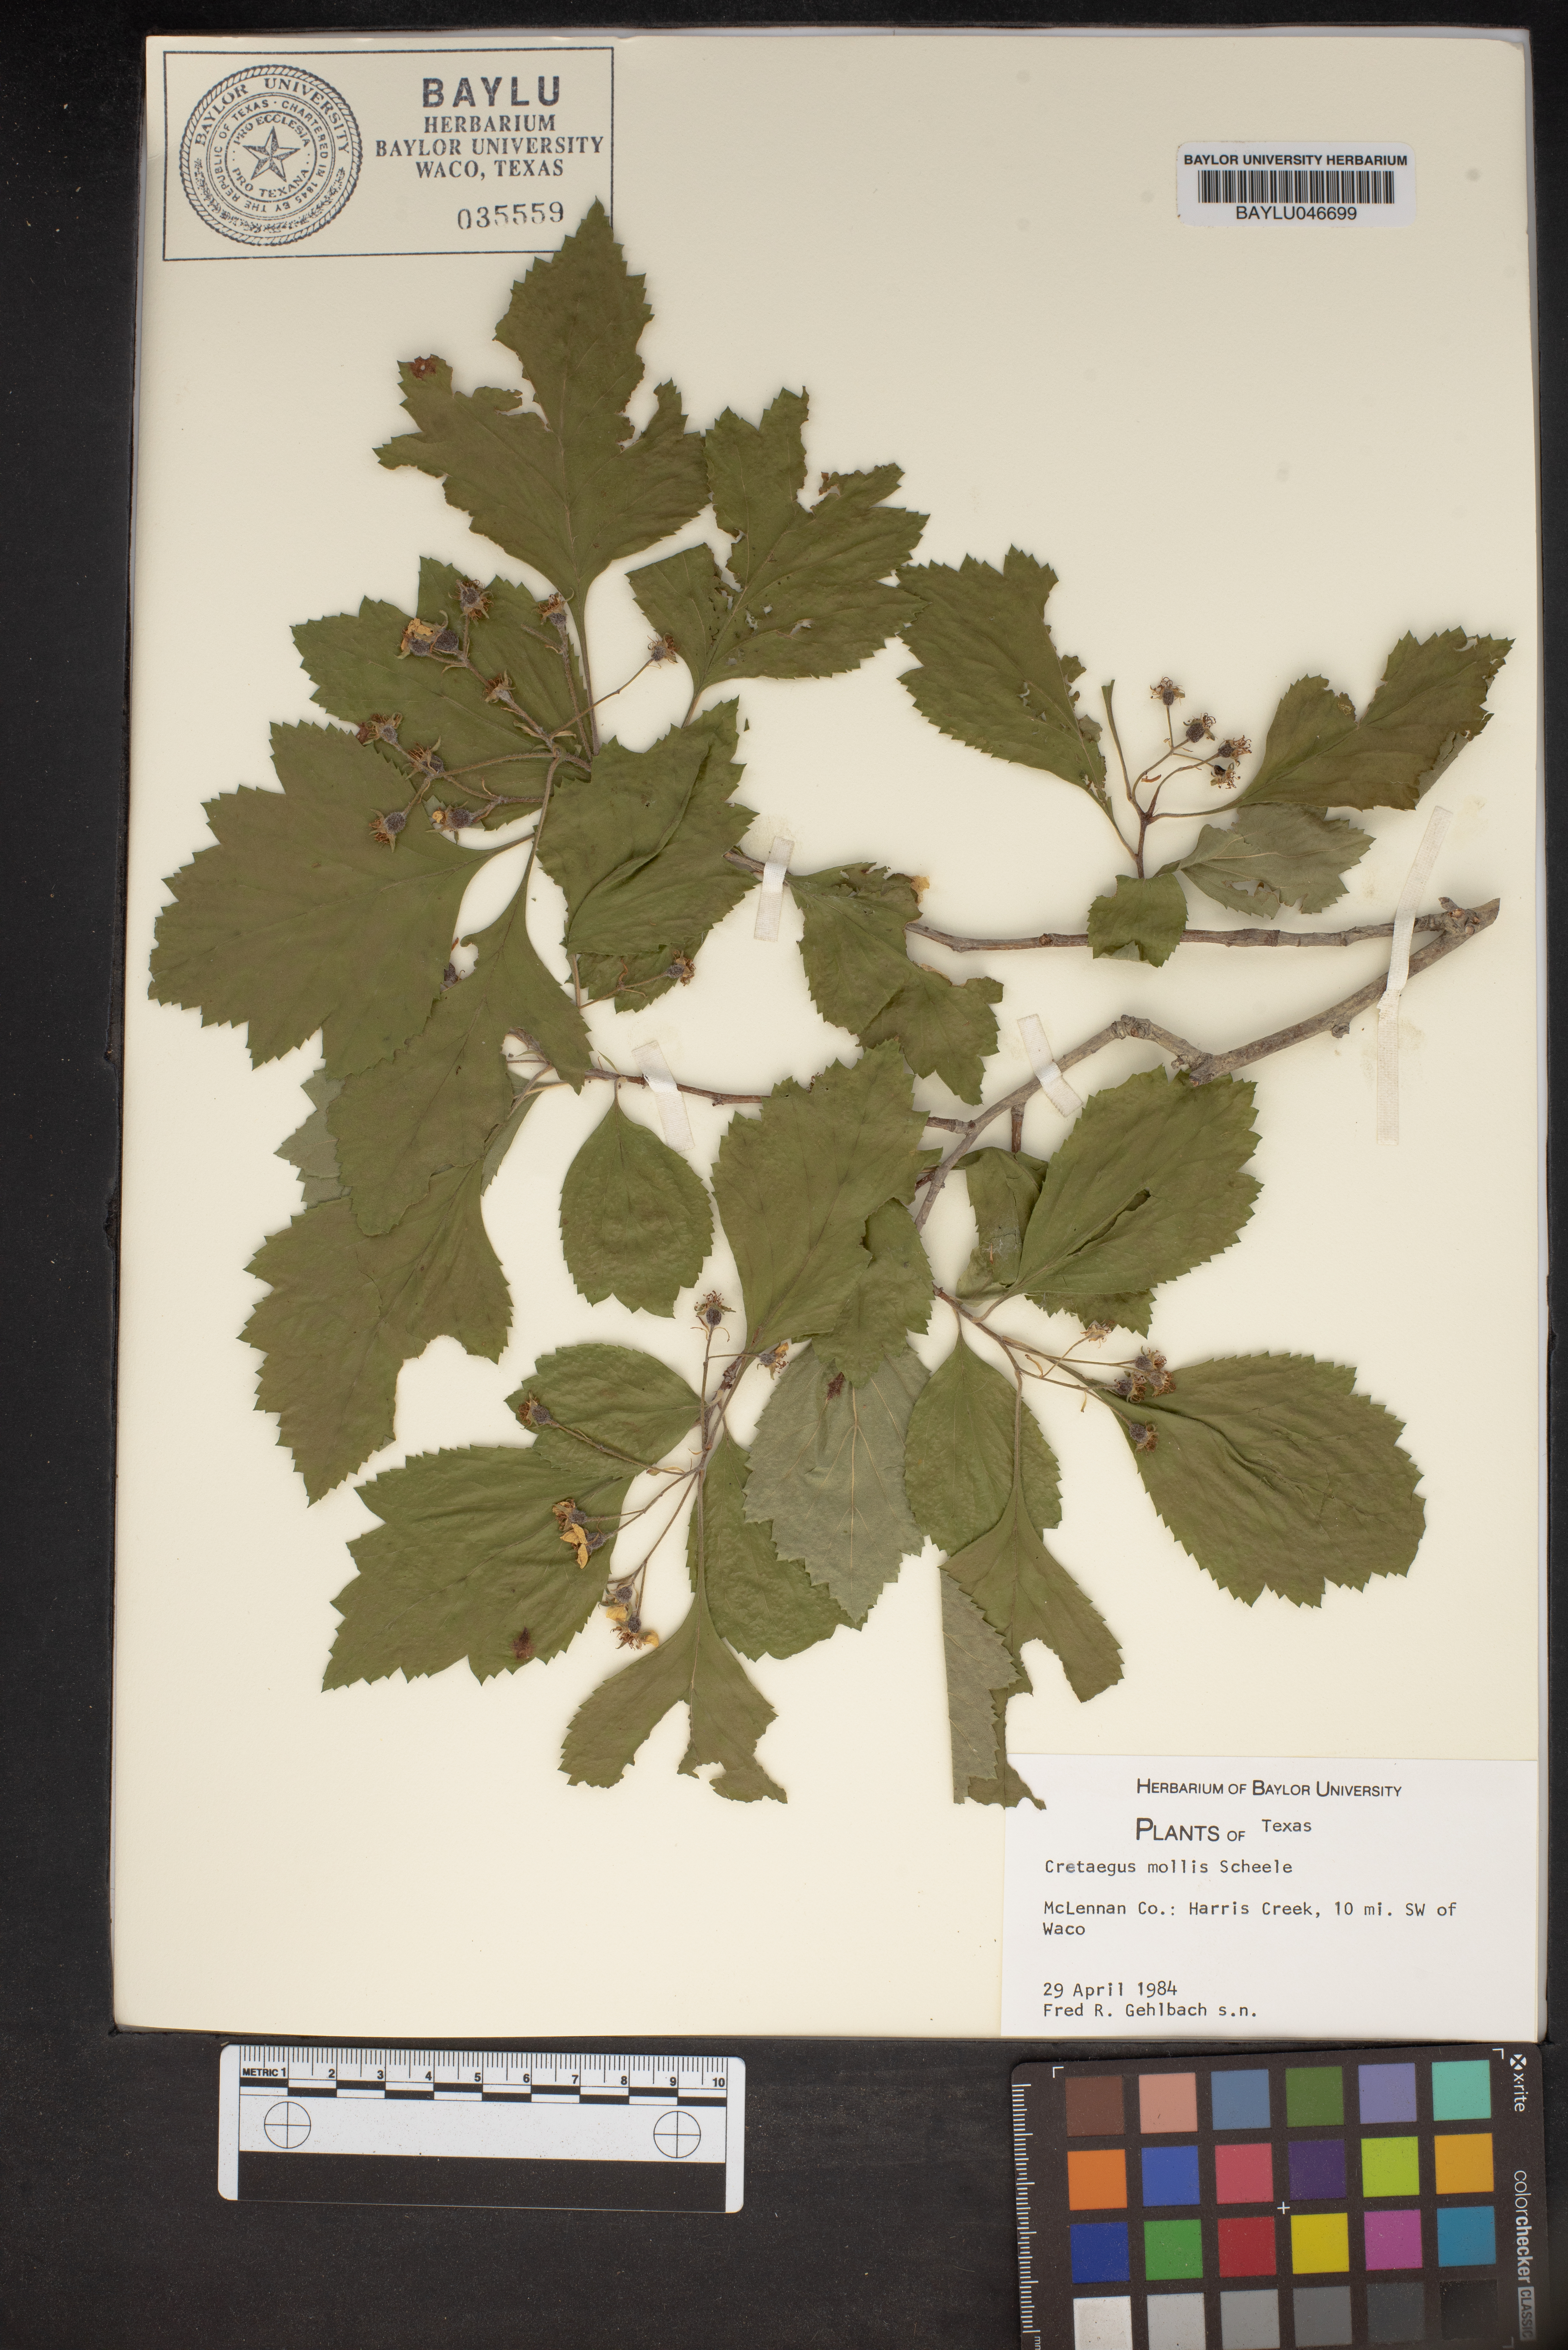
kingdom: Plantae
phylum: Tracheophyta
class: Magnoliopsida
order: Rosales
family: Rosaceae
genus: Crataegus
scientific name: Crataegus mollis
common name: Downy hawthorn
